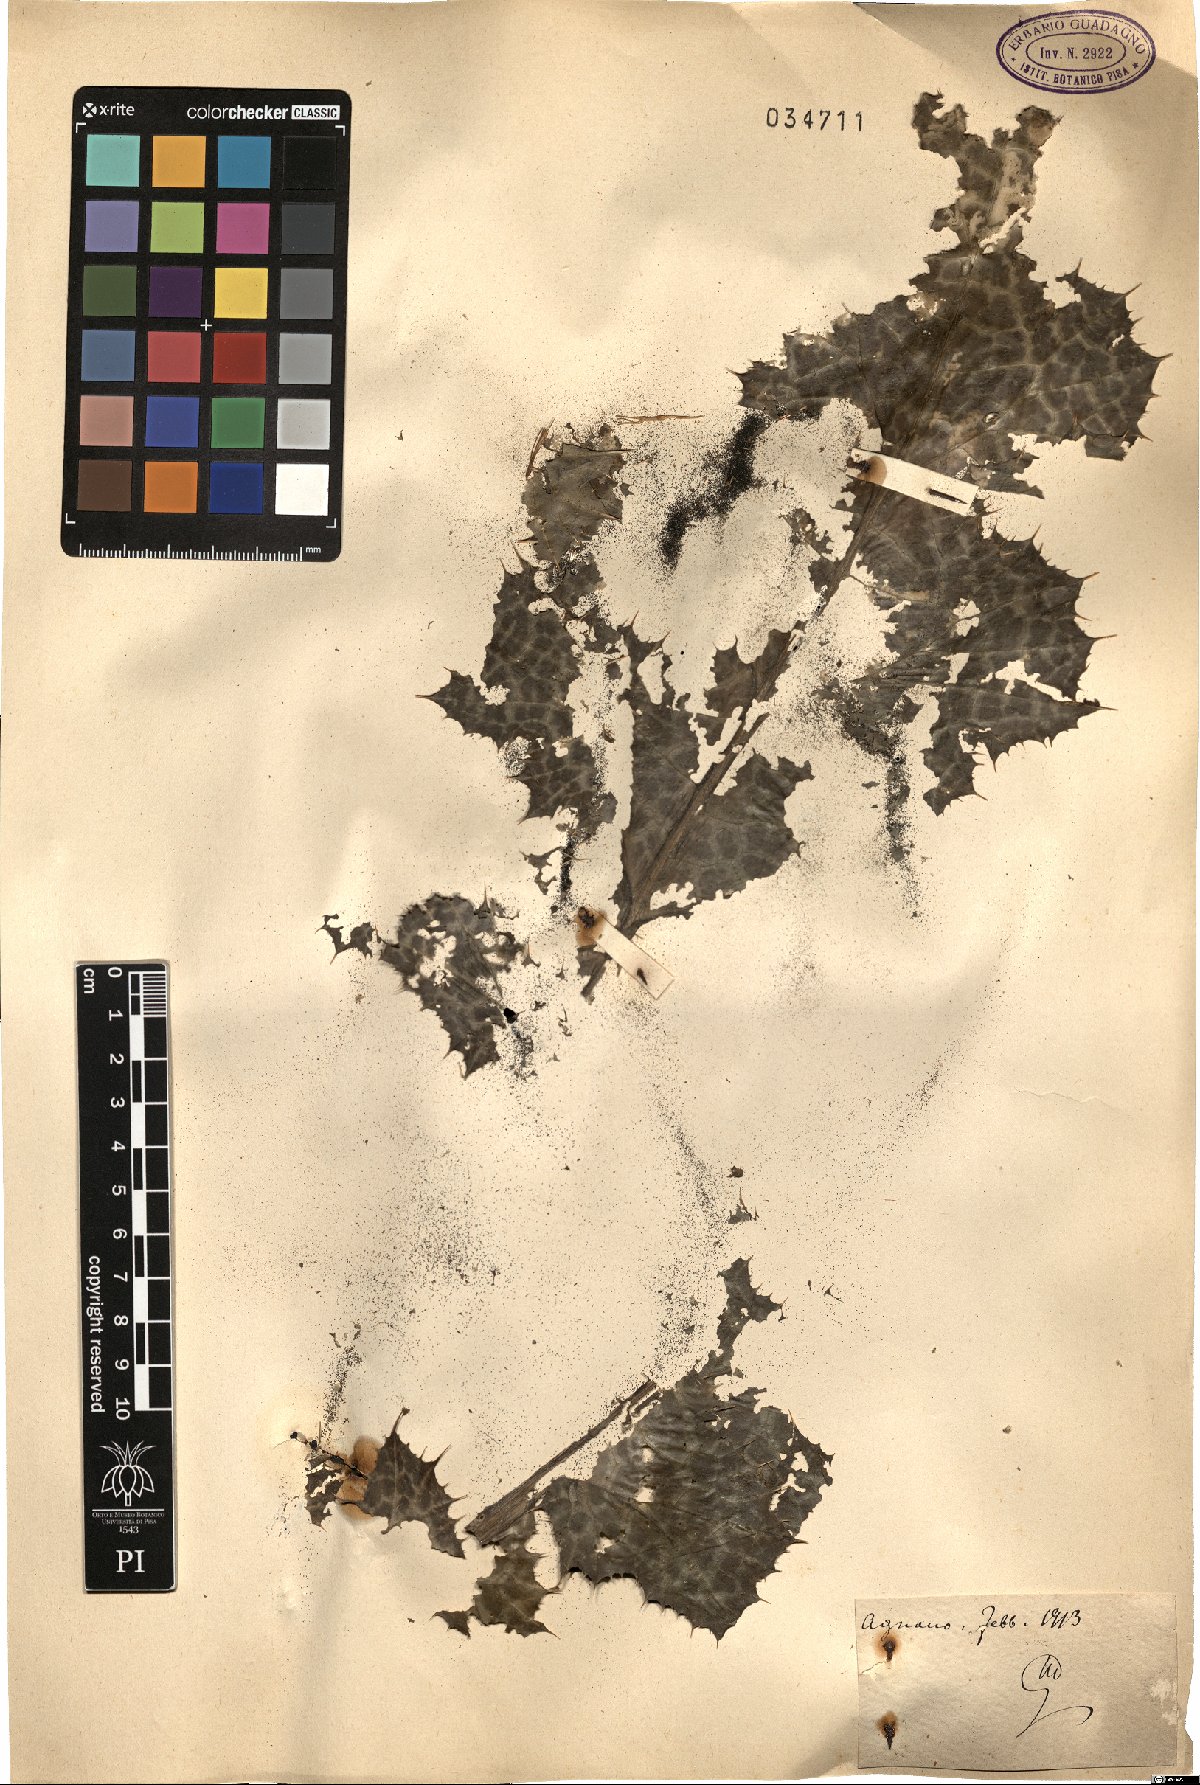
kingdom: Plantae
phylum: Tracheophyta
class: Magnoliopsida
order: Asterales
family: Asteraceae
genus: Silybum
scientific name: Silybum
